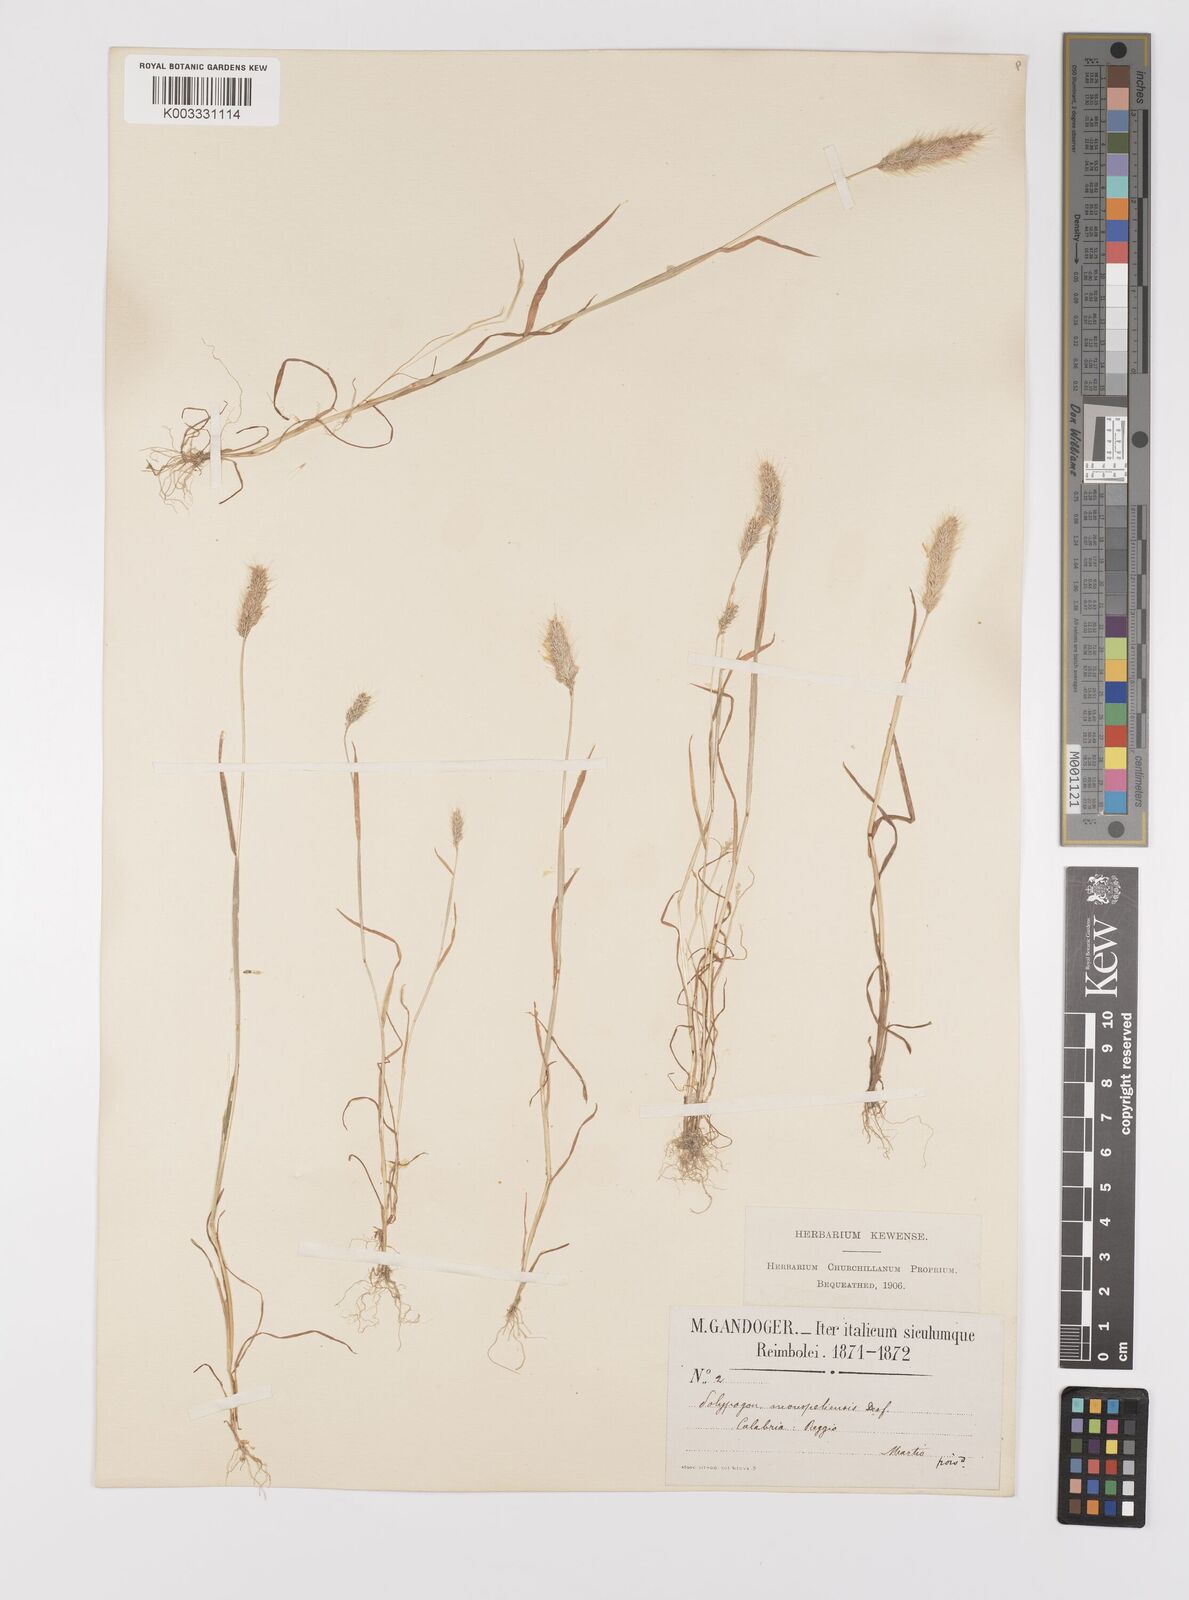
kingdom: Plantae
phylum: Tracheophyta
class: Liliopsida
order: Poales
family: Poaceae
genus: Polypogon
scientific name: Polypogon monspeliensis
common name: Annual rabbitsfoot grass
